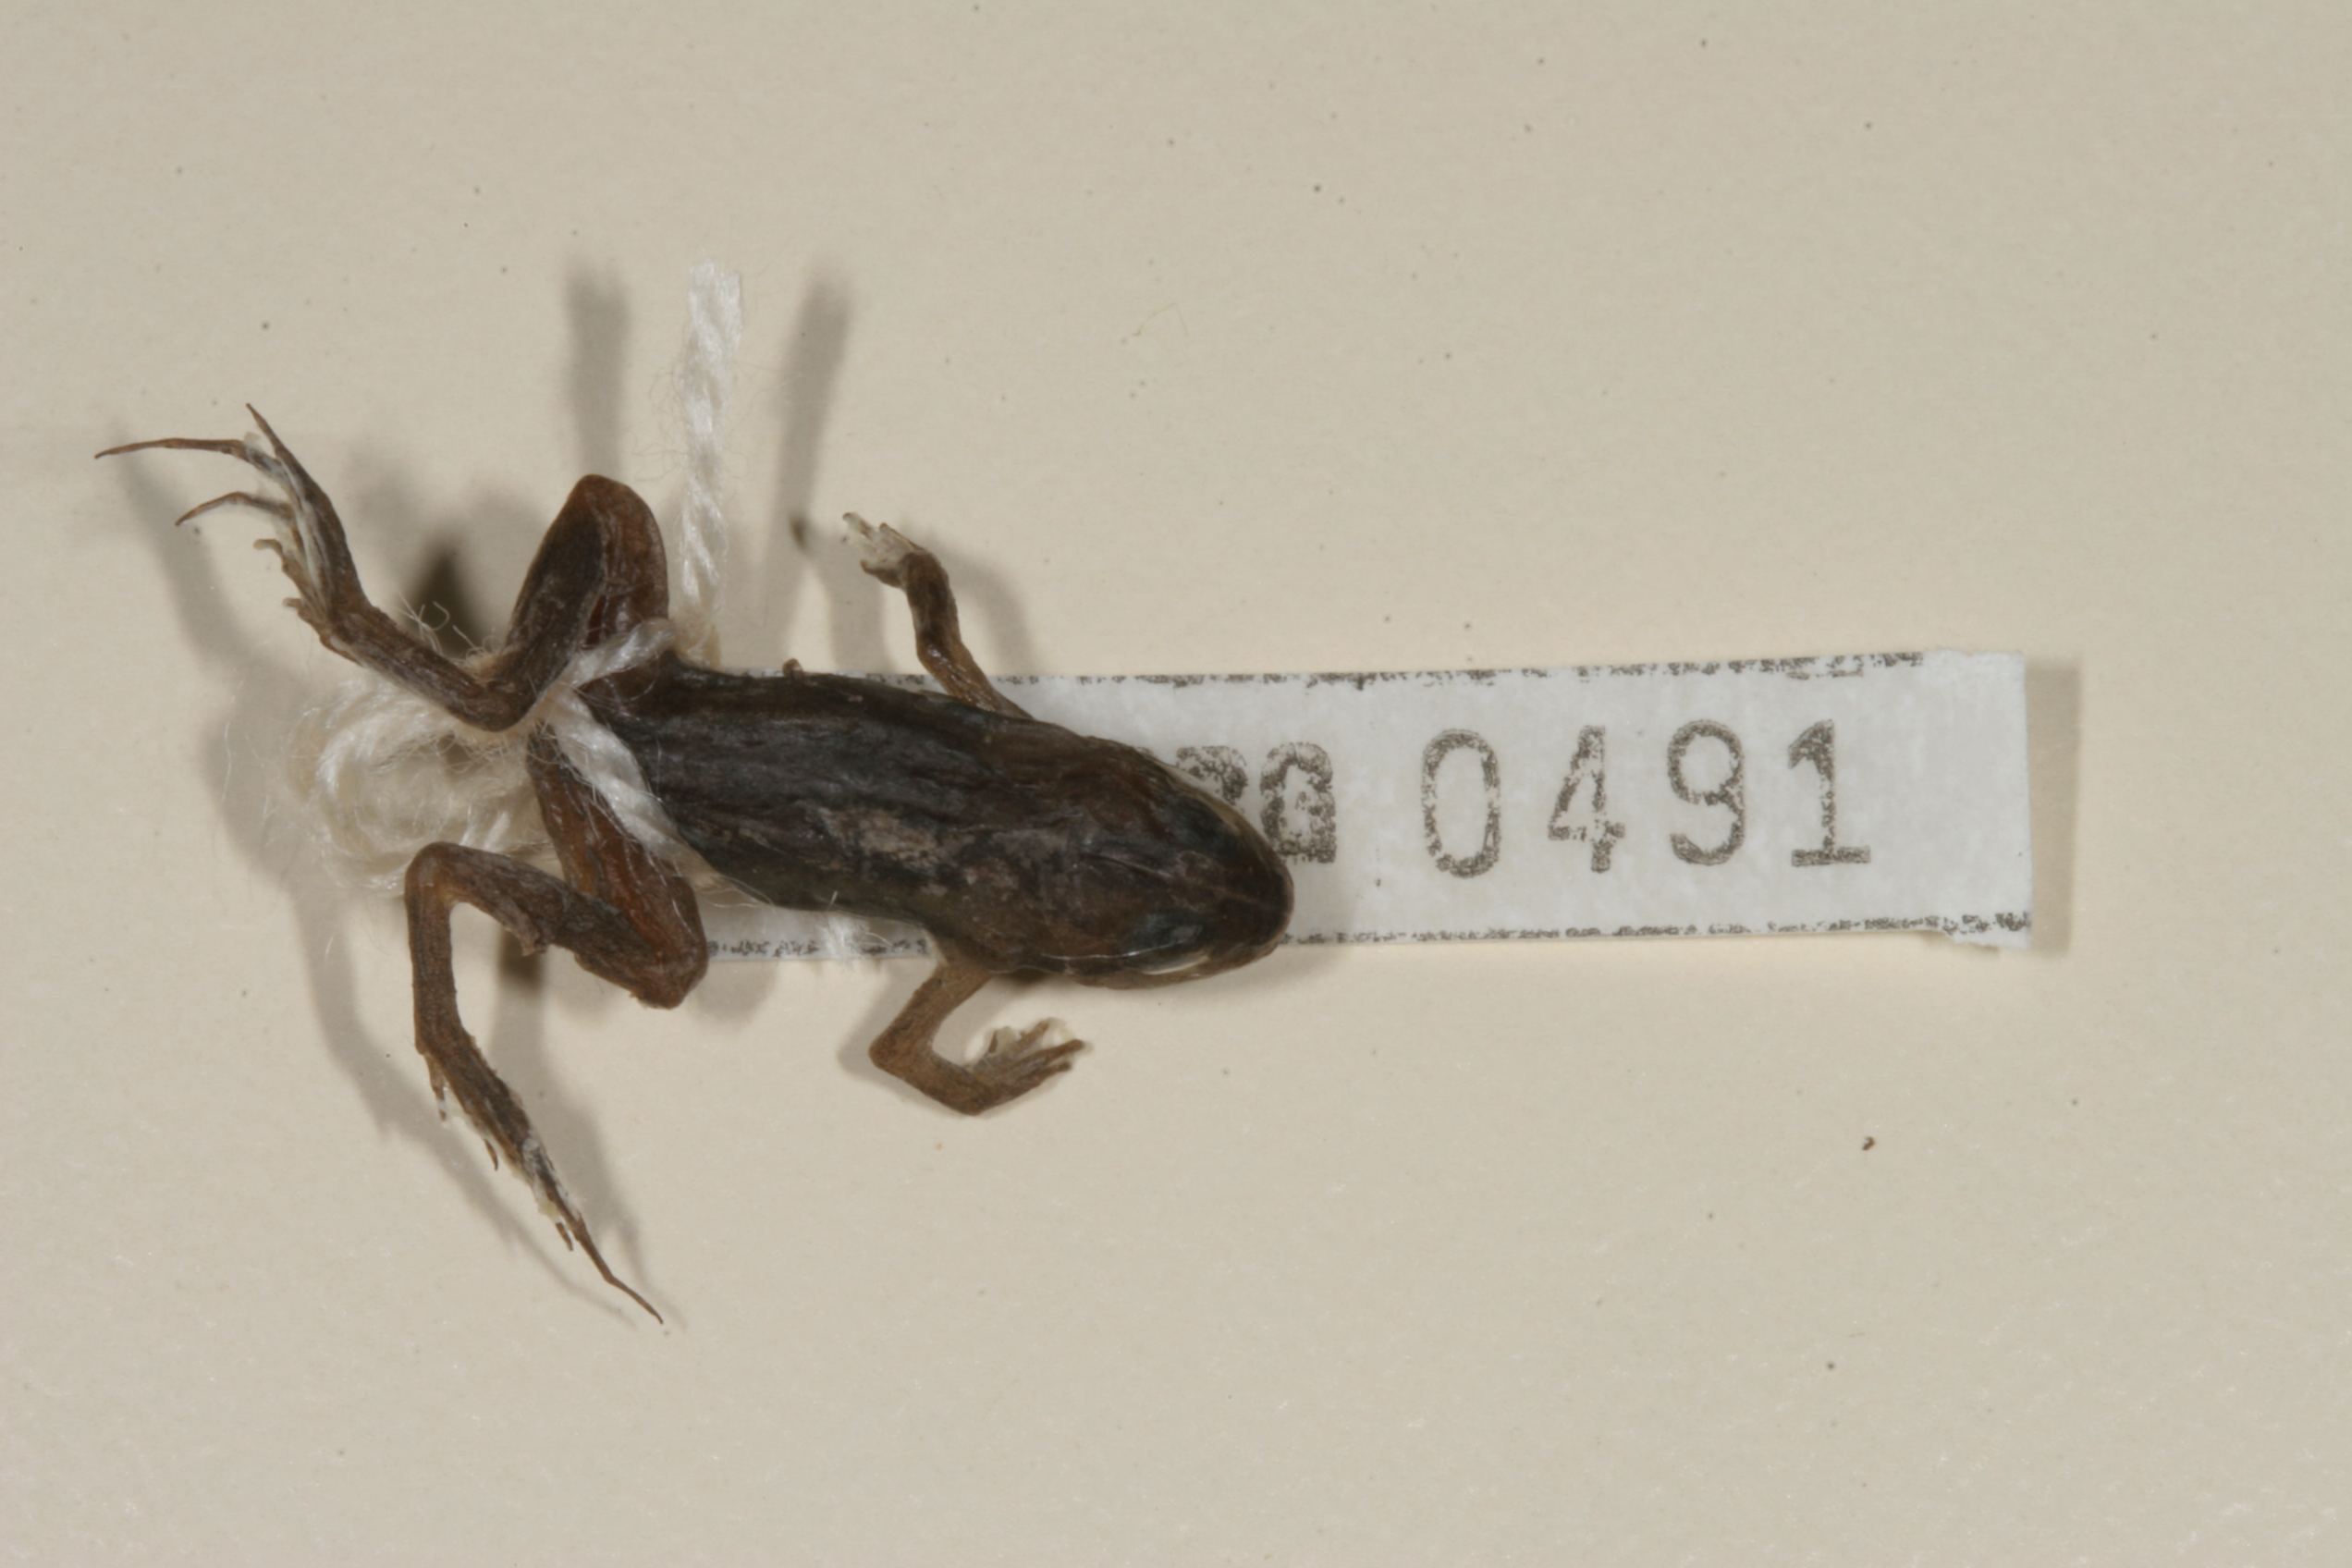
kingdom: Animalia
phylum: Chordata
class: Amphibia
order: Anura
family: Pyxicephalidae
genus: Cacosternum
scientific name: Cacosternum nanum
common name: Bronze dainty frog
